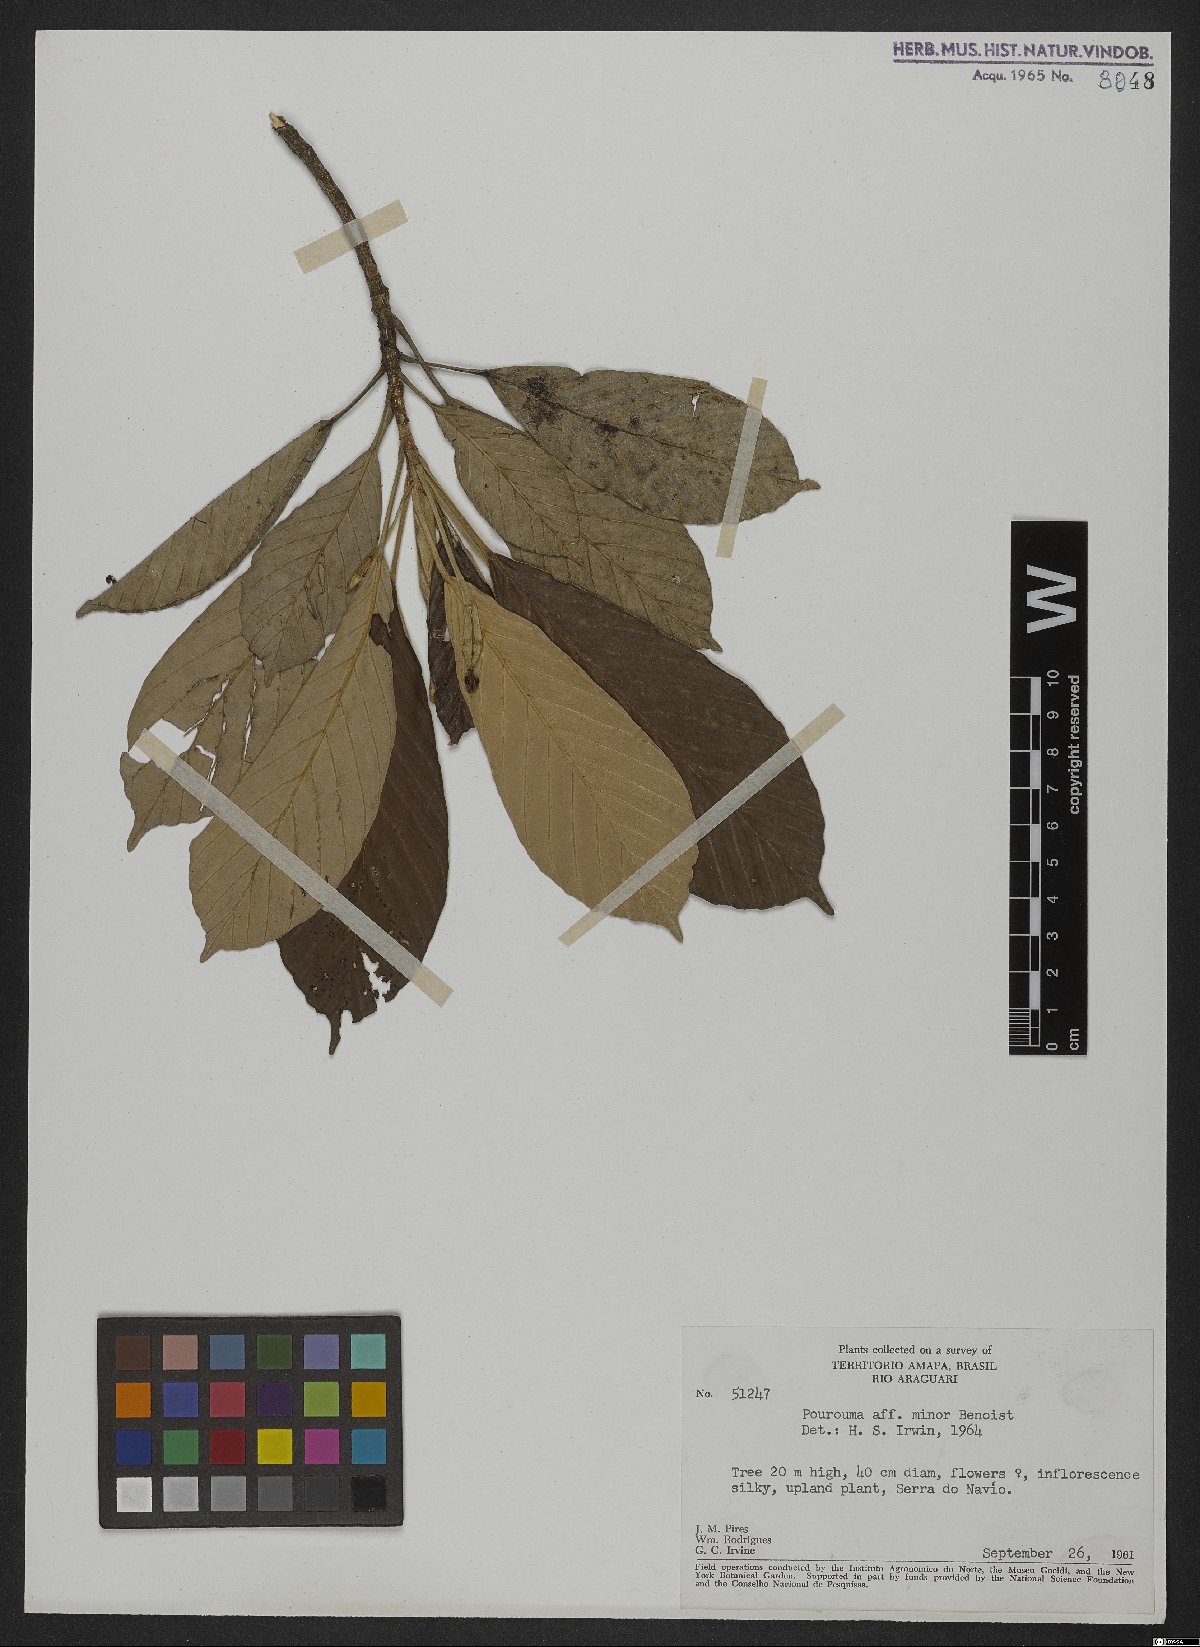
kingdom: Plantae
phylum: Tracheophyta
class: Magnoliopsida
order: Rosales
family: Urticaceae
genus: Pourouma
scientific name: Pourouma minor
